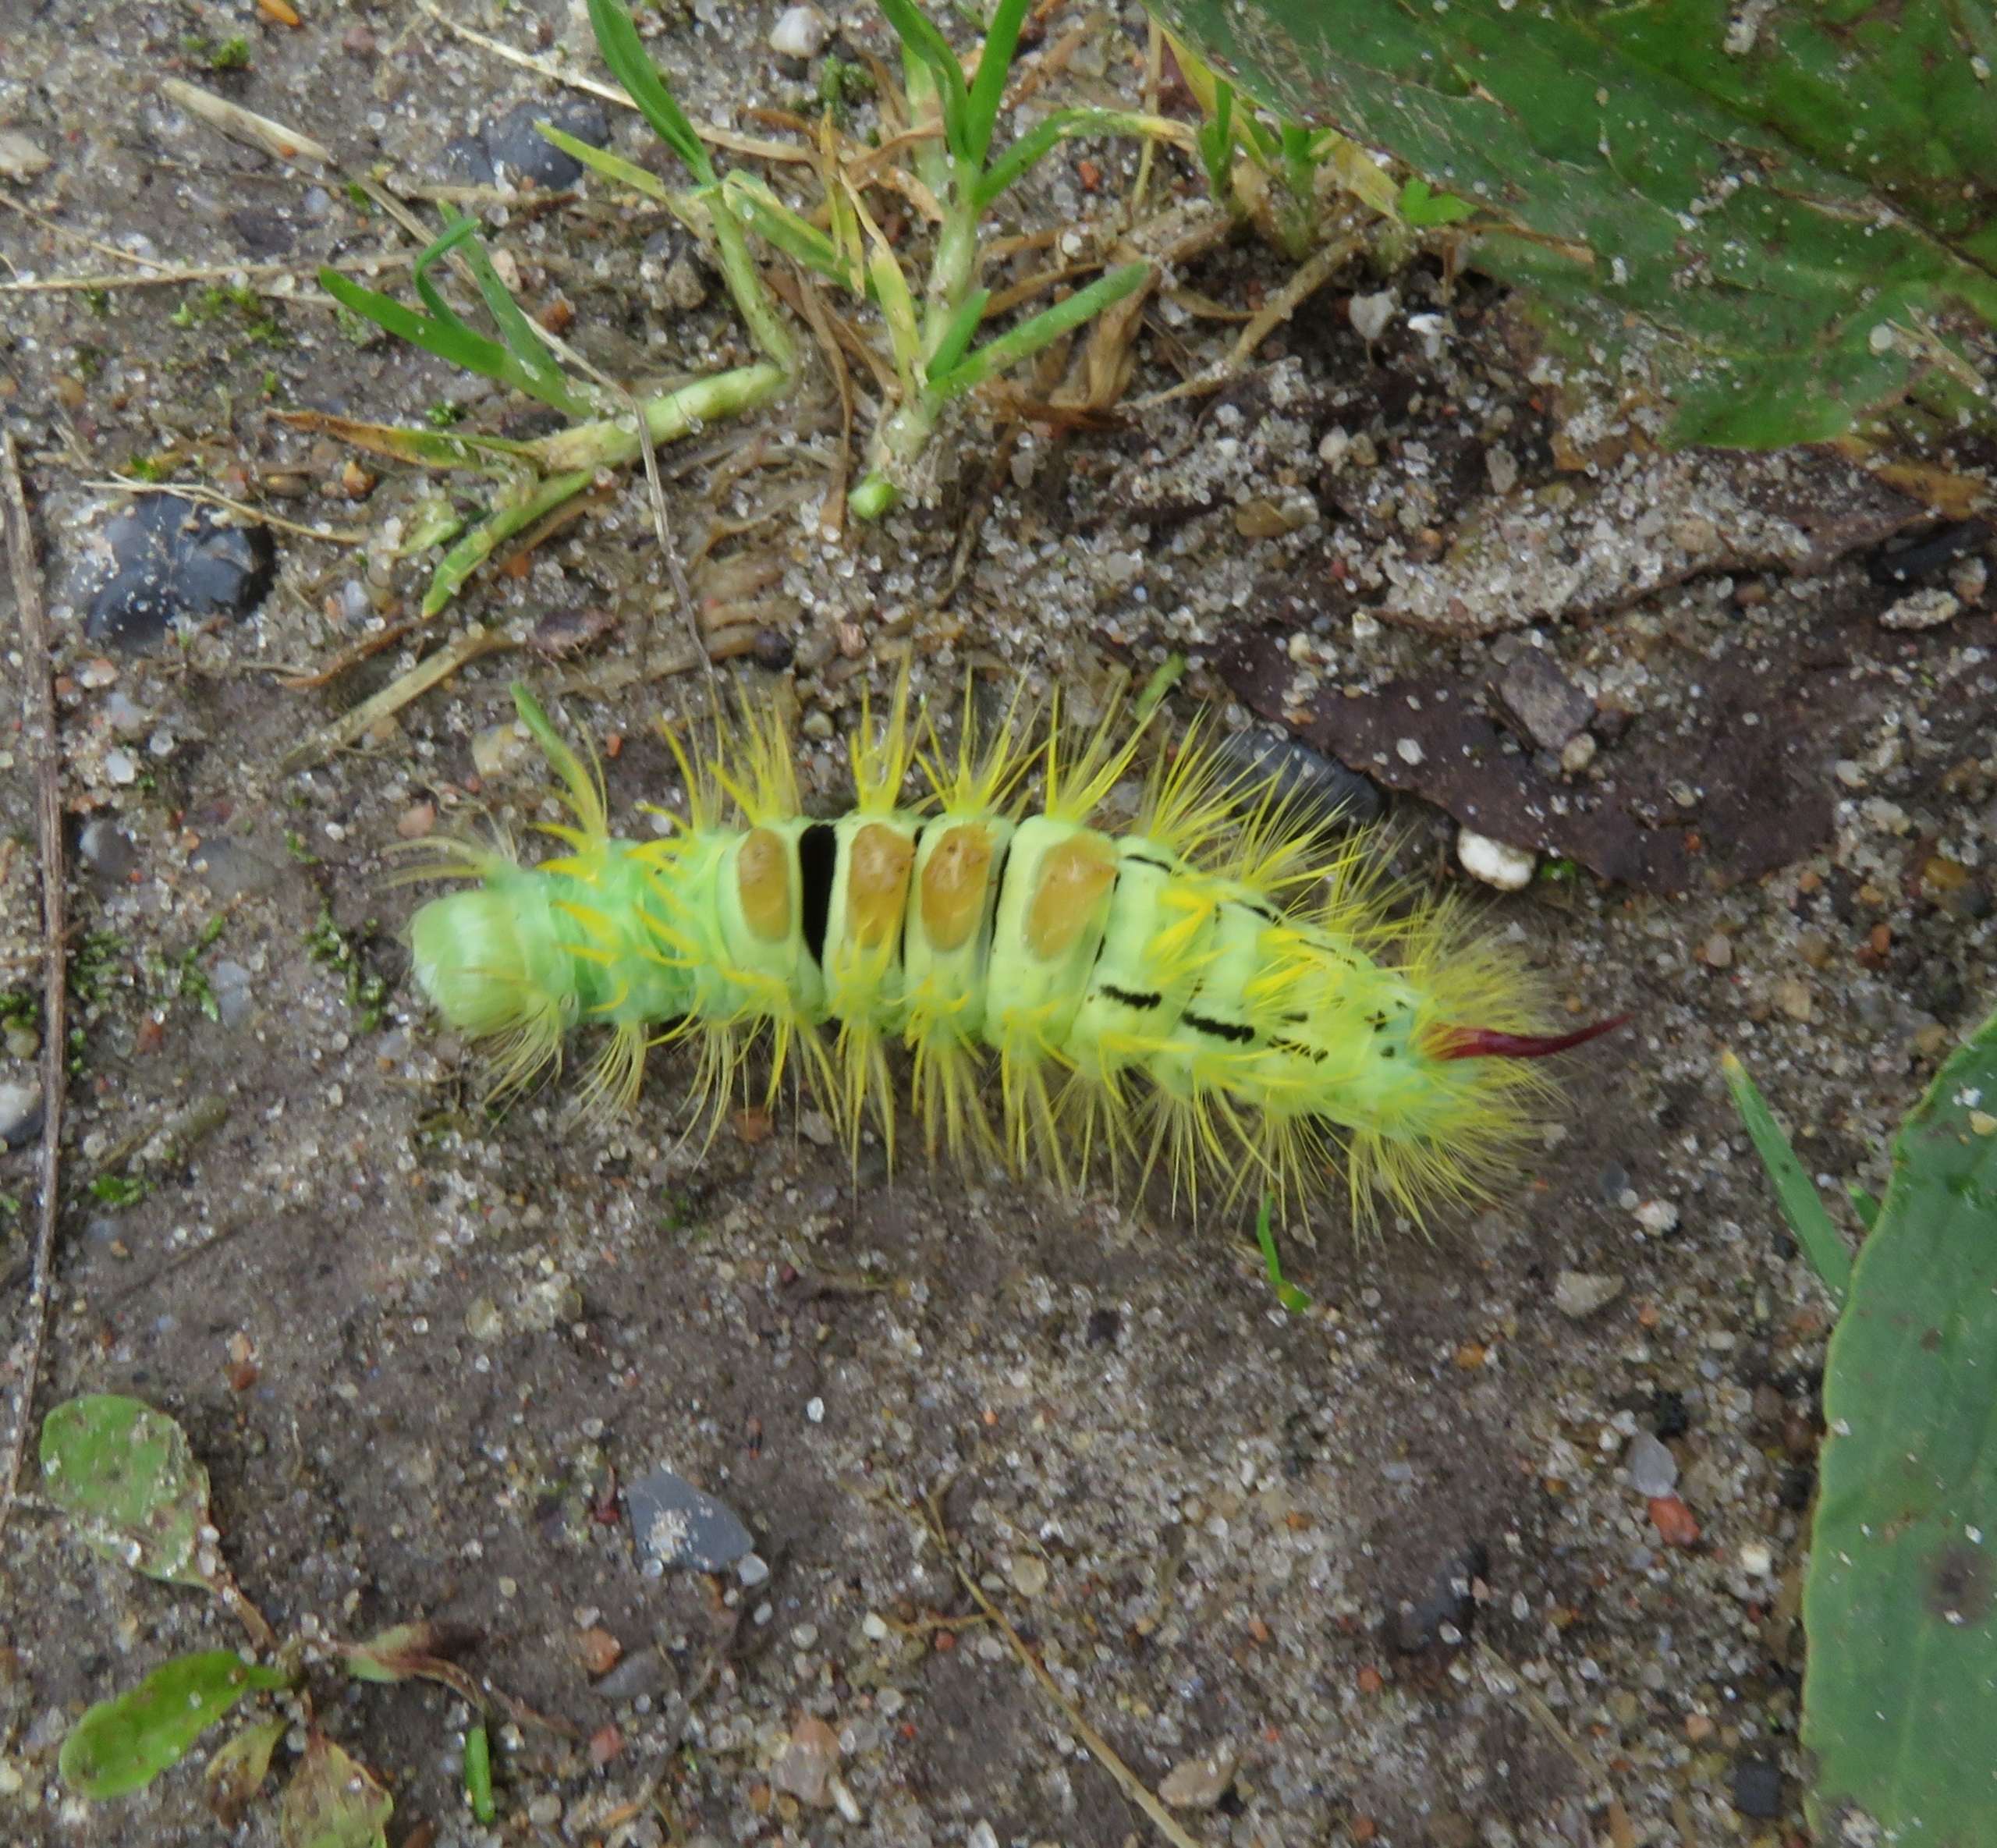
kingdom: Animalia
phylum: Arthropoda
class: Insecta
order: Lepidoptera
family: Erebidae
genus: Calliteara
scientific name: Calliteara pudibunda
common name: Bøgenonne
